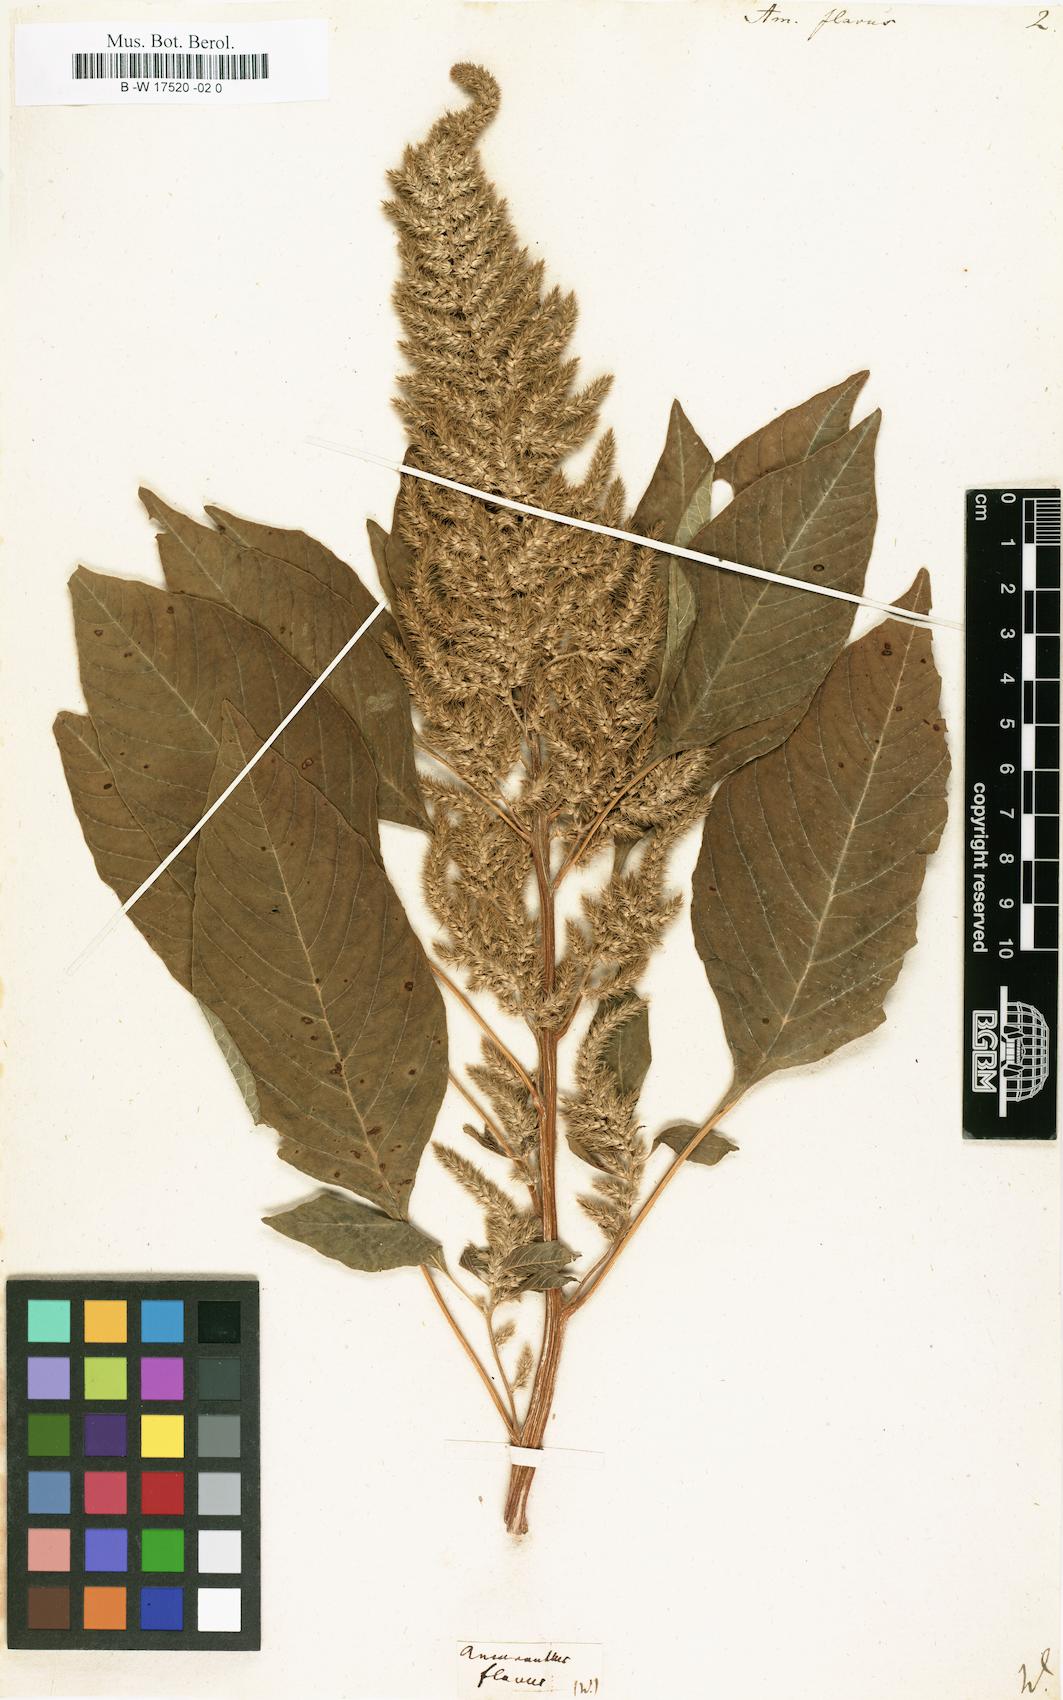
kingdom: Plantae
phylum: Tracheophyta
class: Magnoliopsida
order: Caryophyllales
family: Amaranthaceae
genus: Amaranthus
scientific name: Amaranthus cruentus
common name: Purple amaranth
